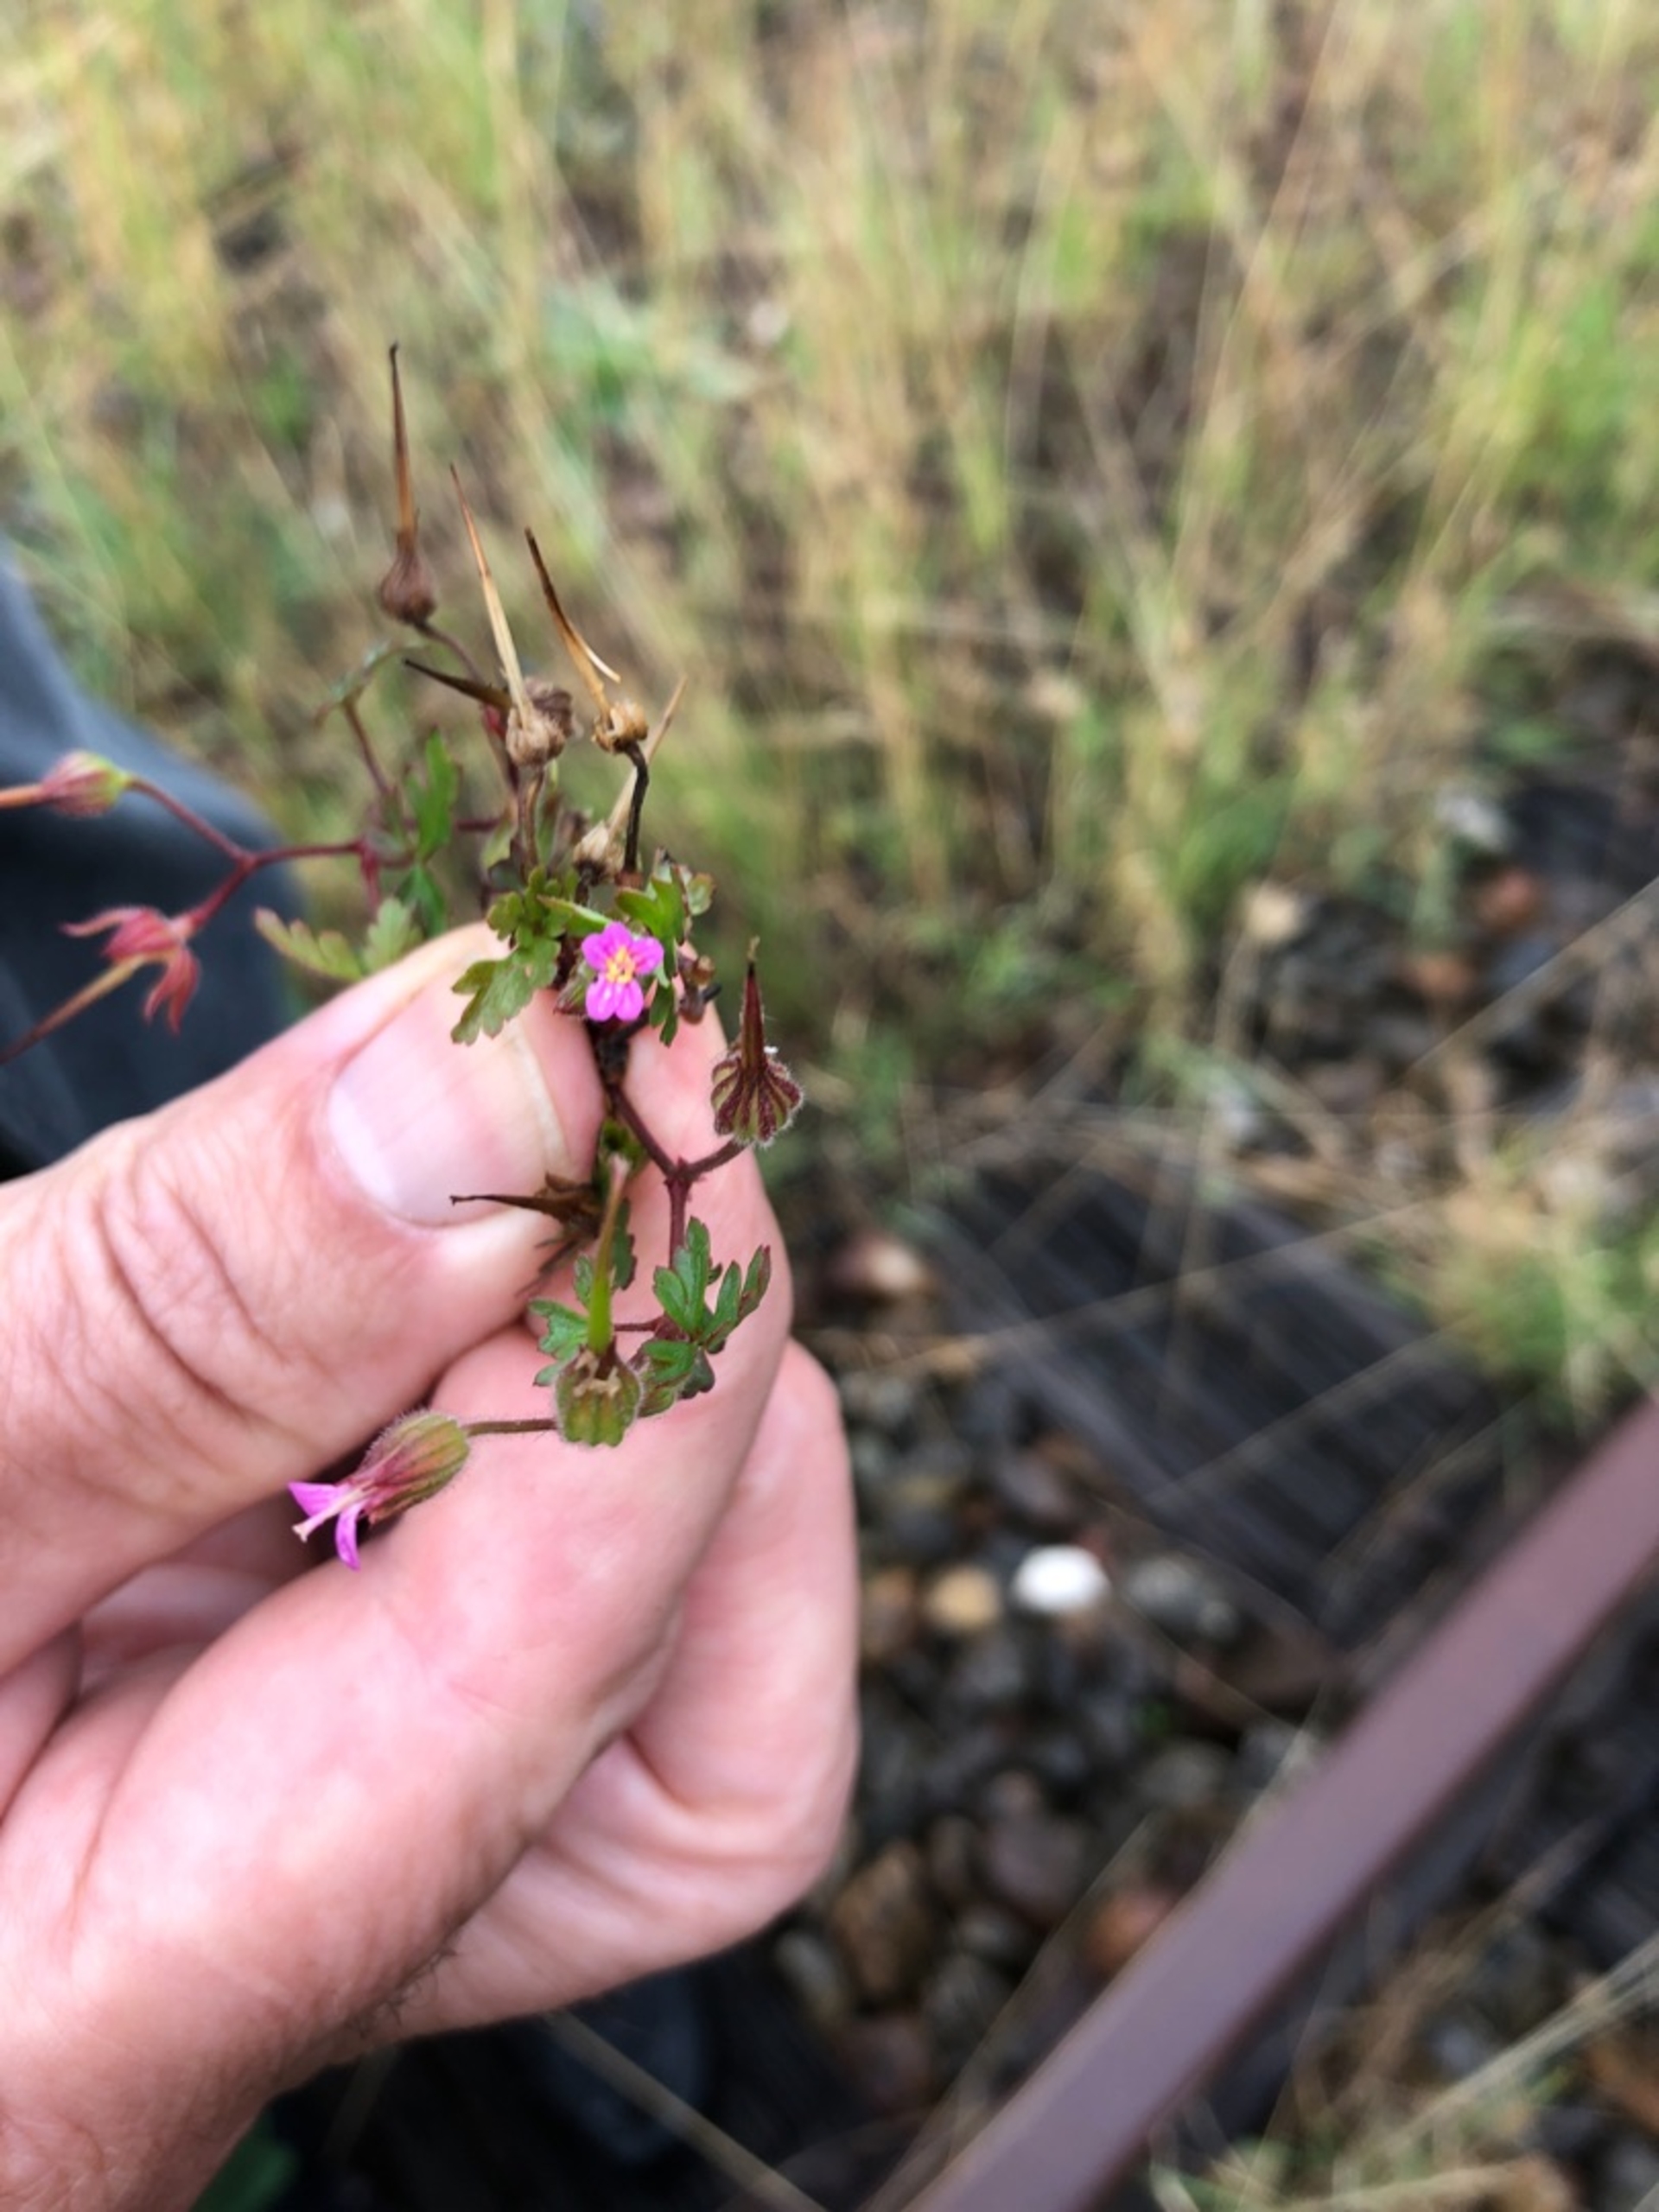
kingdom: Plantae
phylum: Tracheophyta
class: Magnoliopsida
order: Geraniales
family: Geraniaceae
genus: Geranium
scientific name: Geranium purpureum
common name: Purpur-storkenæb
